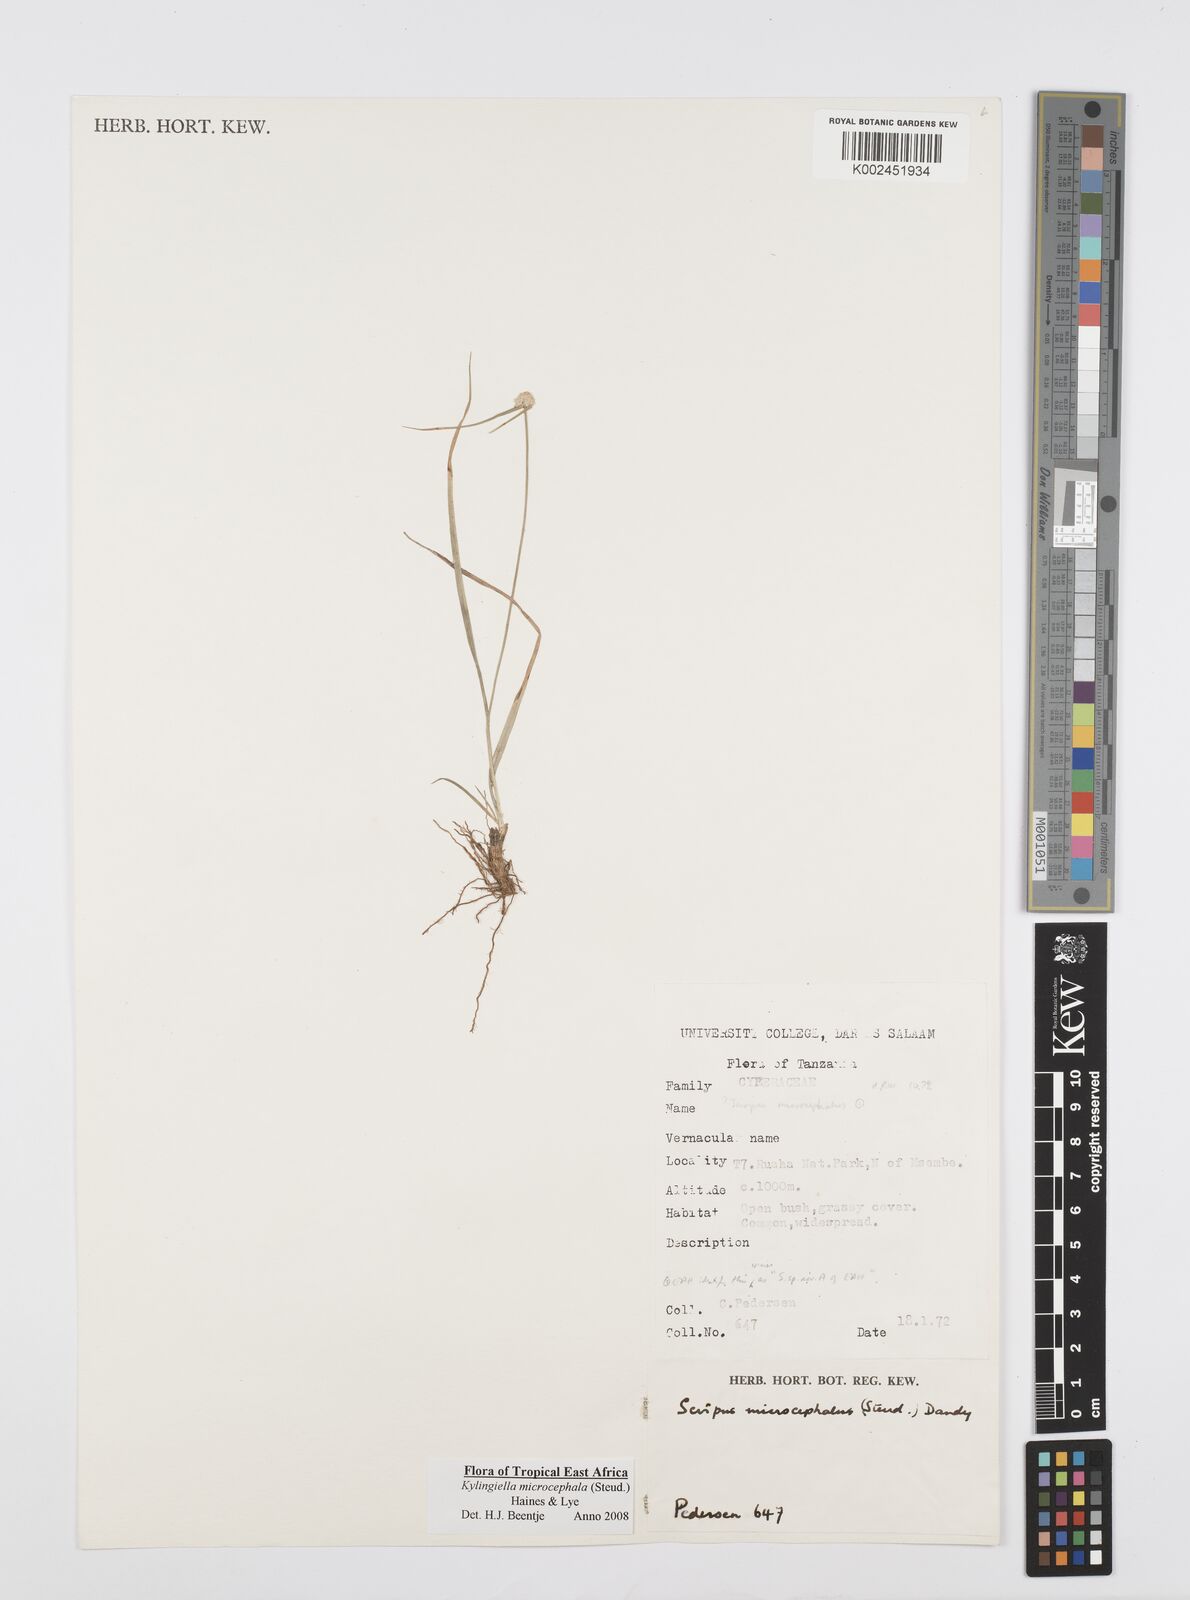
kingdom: Plantae
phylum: Tracheophyta
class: Liliopsida
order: Poales
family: Cyperaceae
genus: Cyperus
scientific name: Cyperus microcephalus
